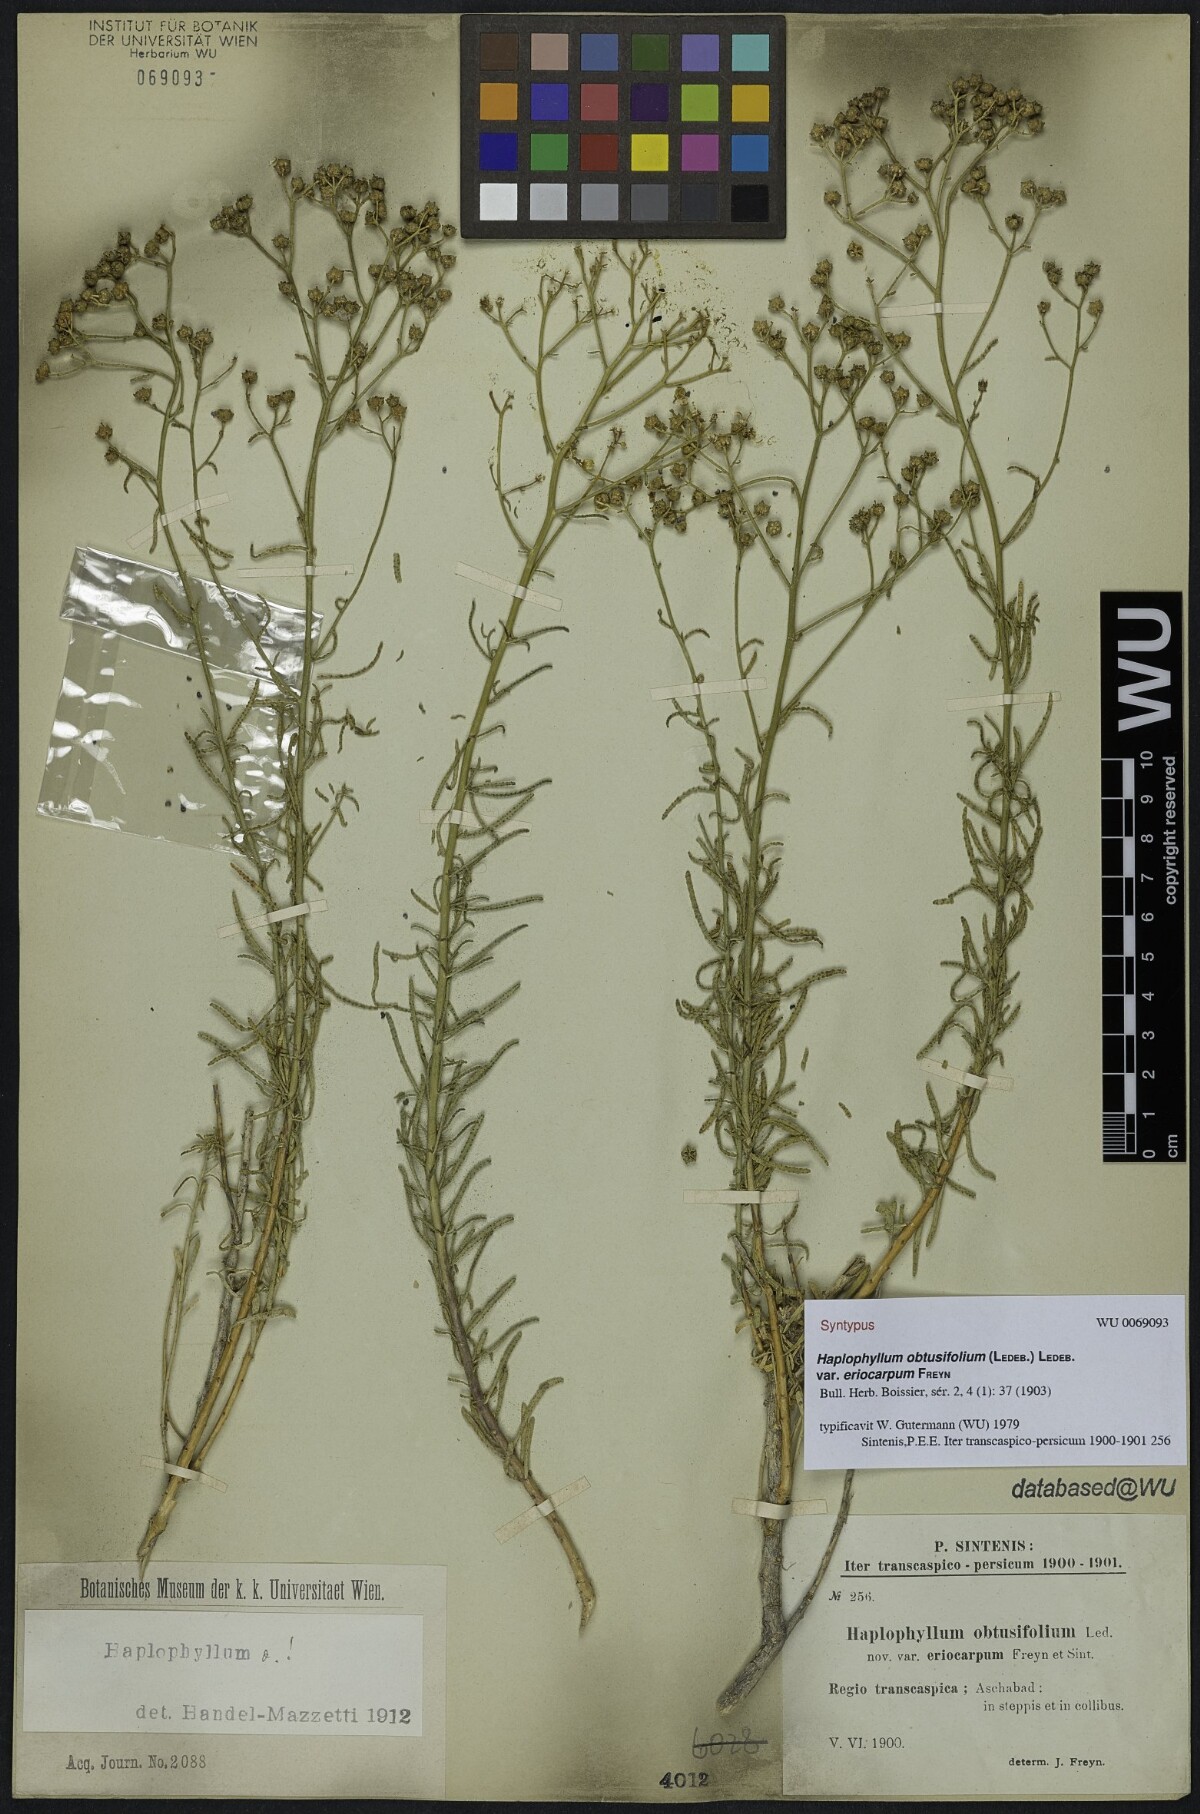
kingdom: Plantae
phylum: Tracheophyta
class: Magnoliopsida
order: Sapindales
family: Rutaceae
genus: Haplophyllum
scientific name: Haplophyllum obtusifolium
